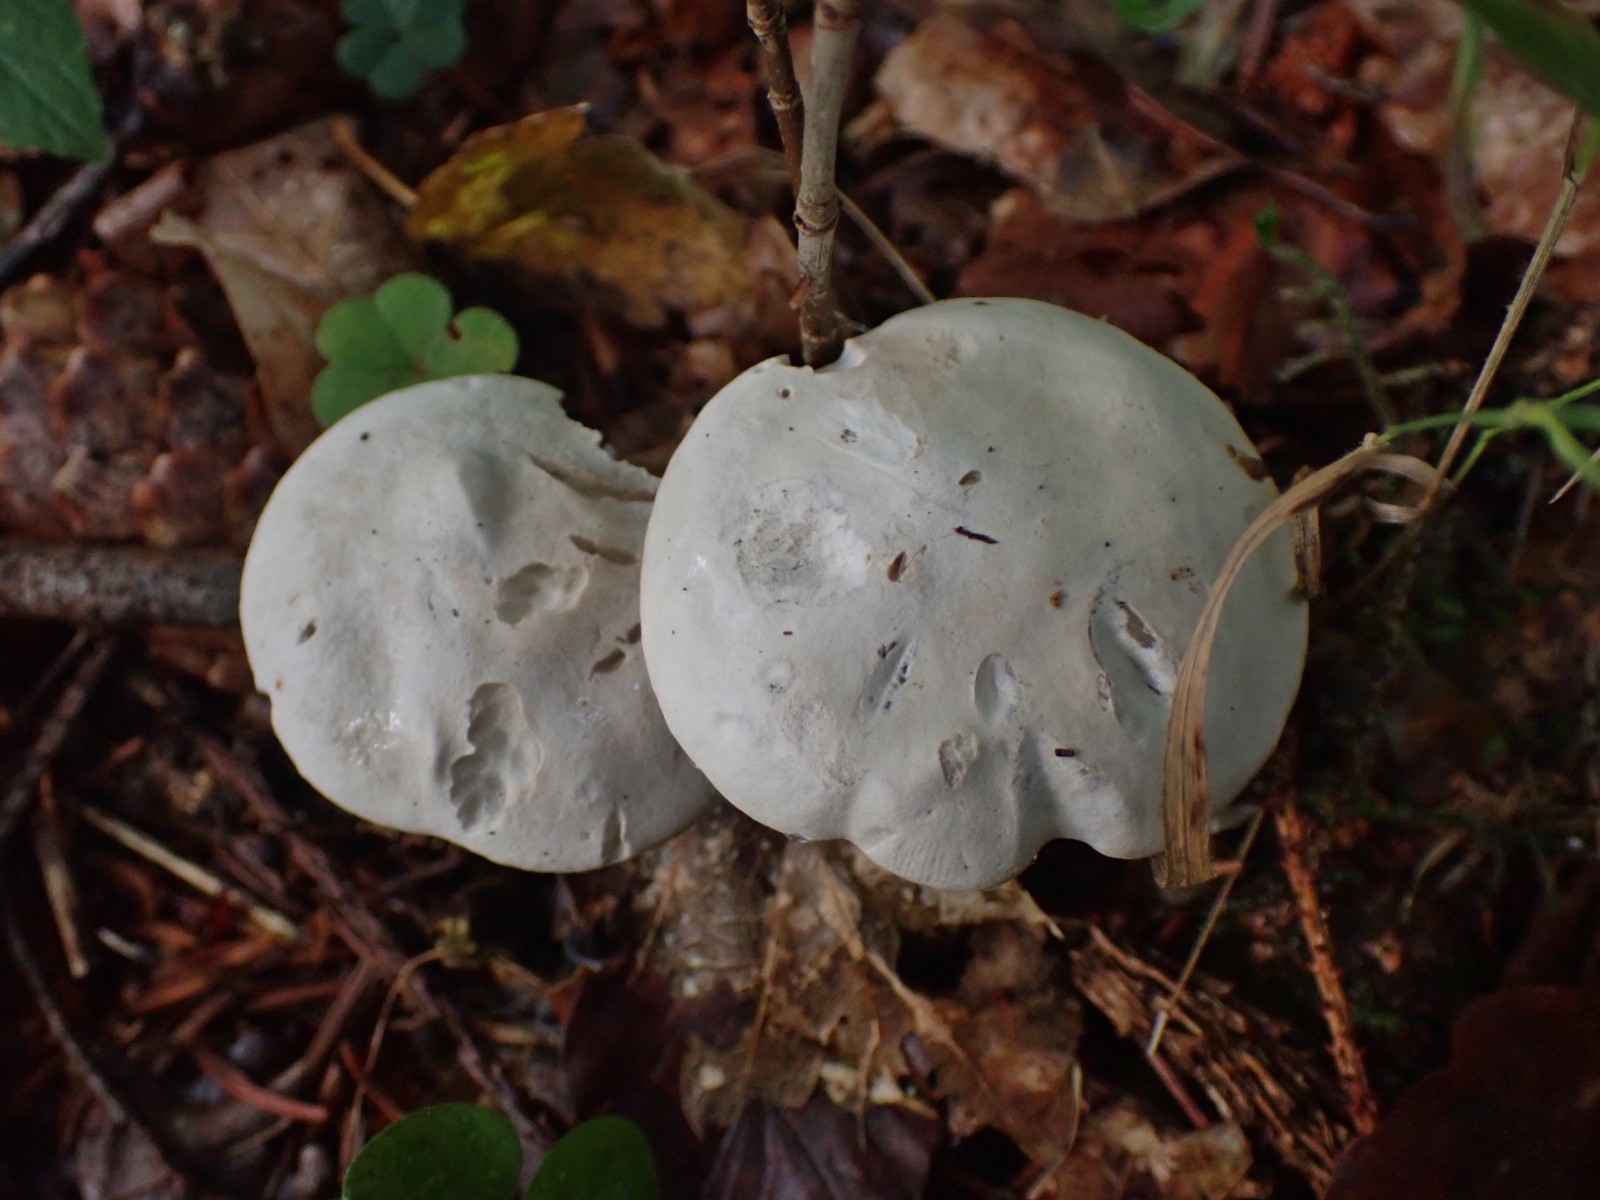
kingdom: Fungi
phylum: Basidiomycota
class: Agaricomycetes
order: Agaricales
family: Entolomataceae
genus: Clitopilus
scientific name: Clitopilus prunulus
